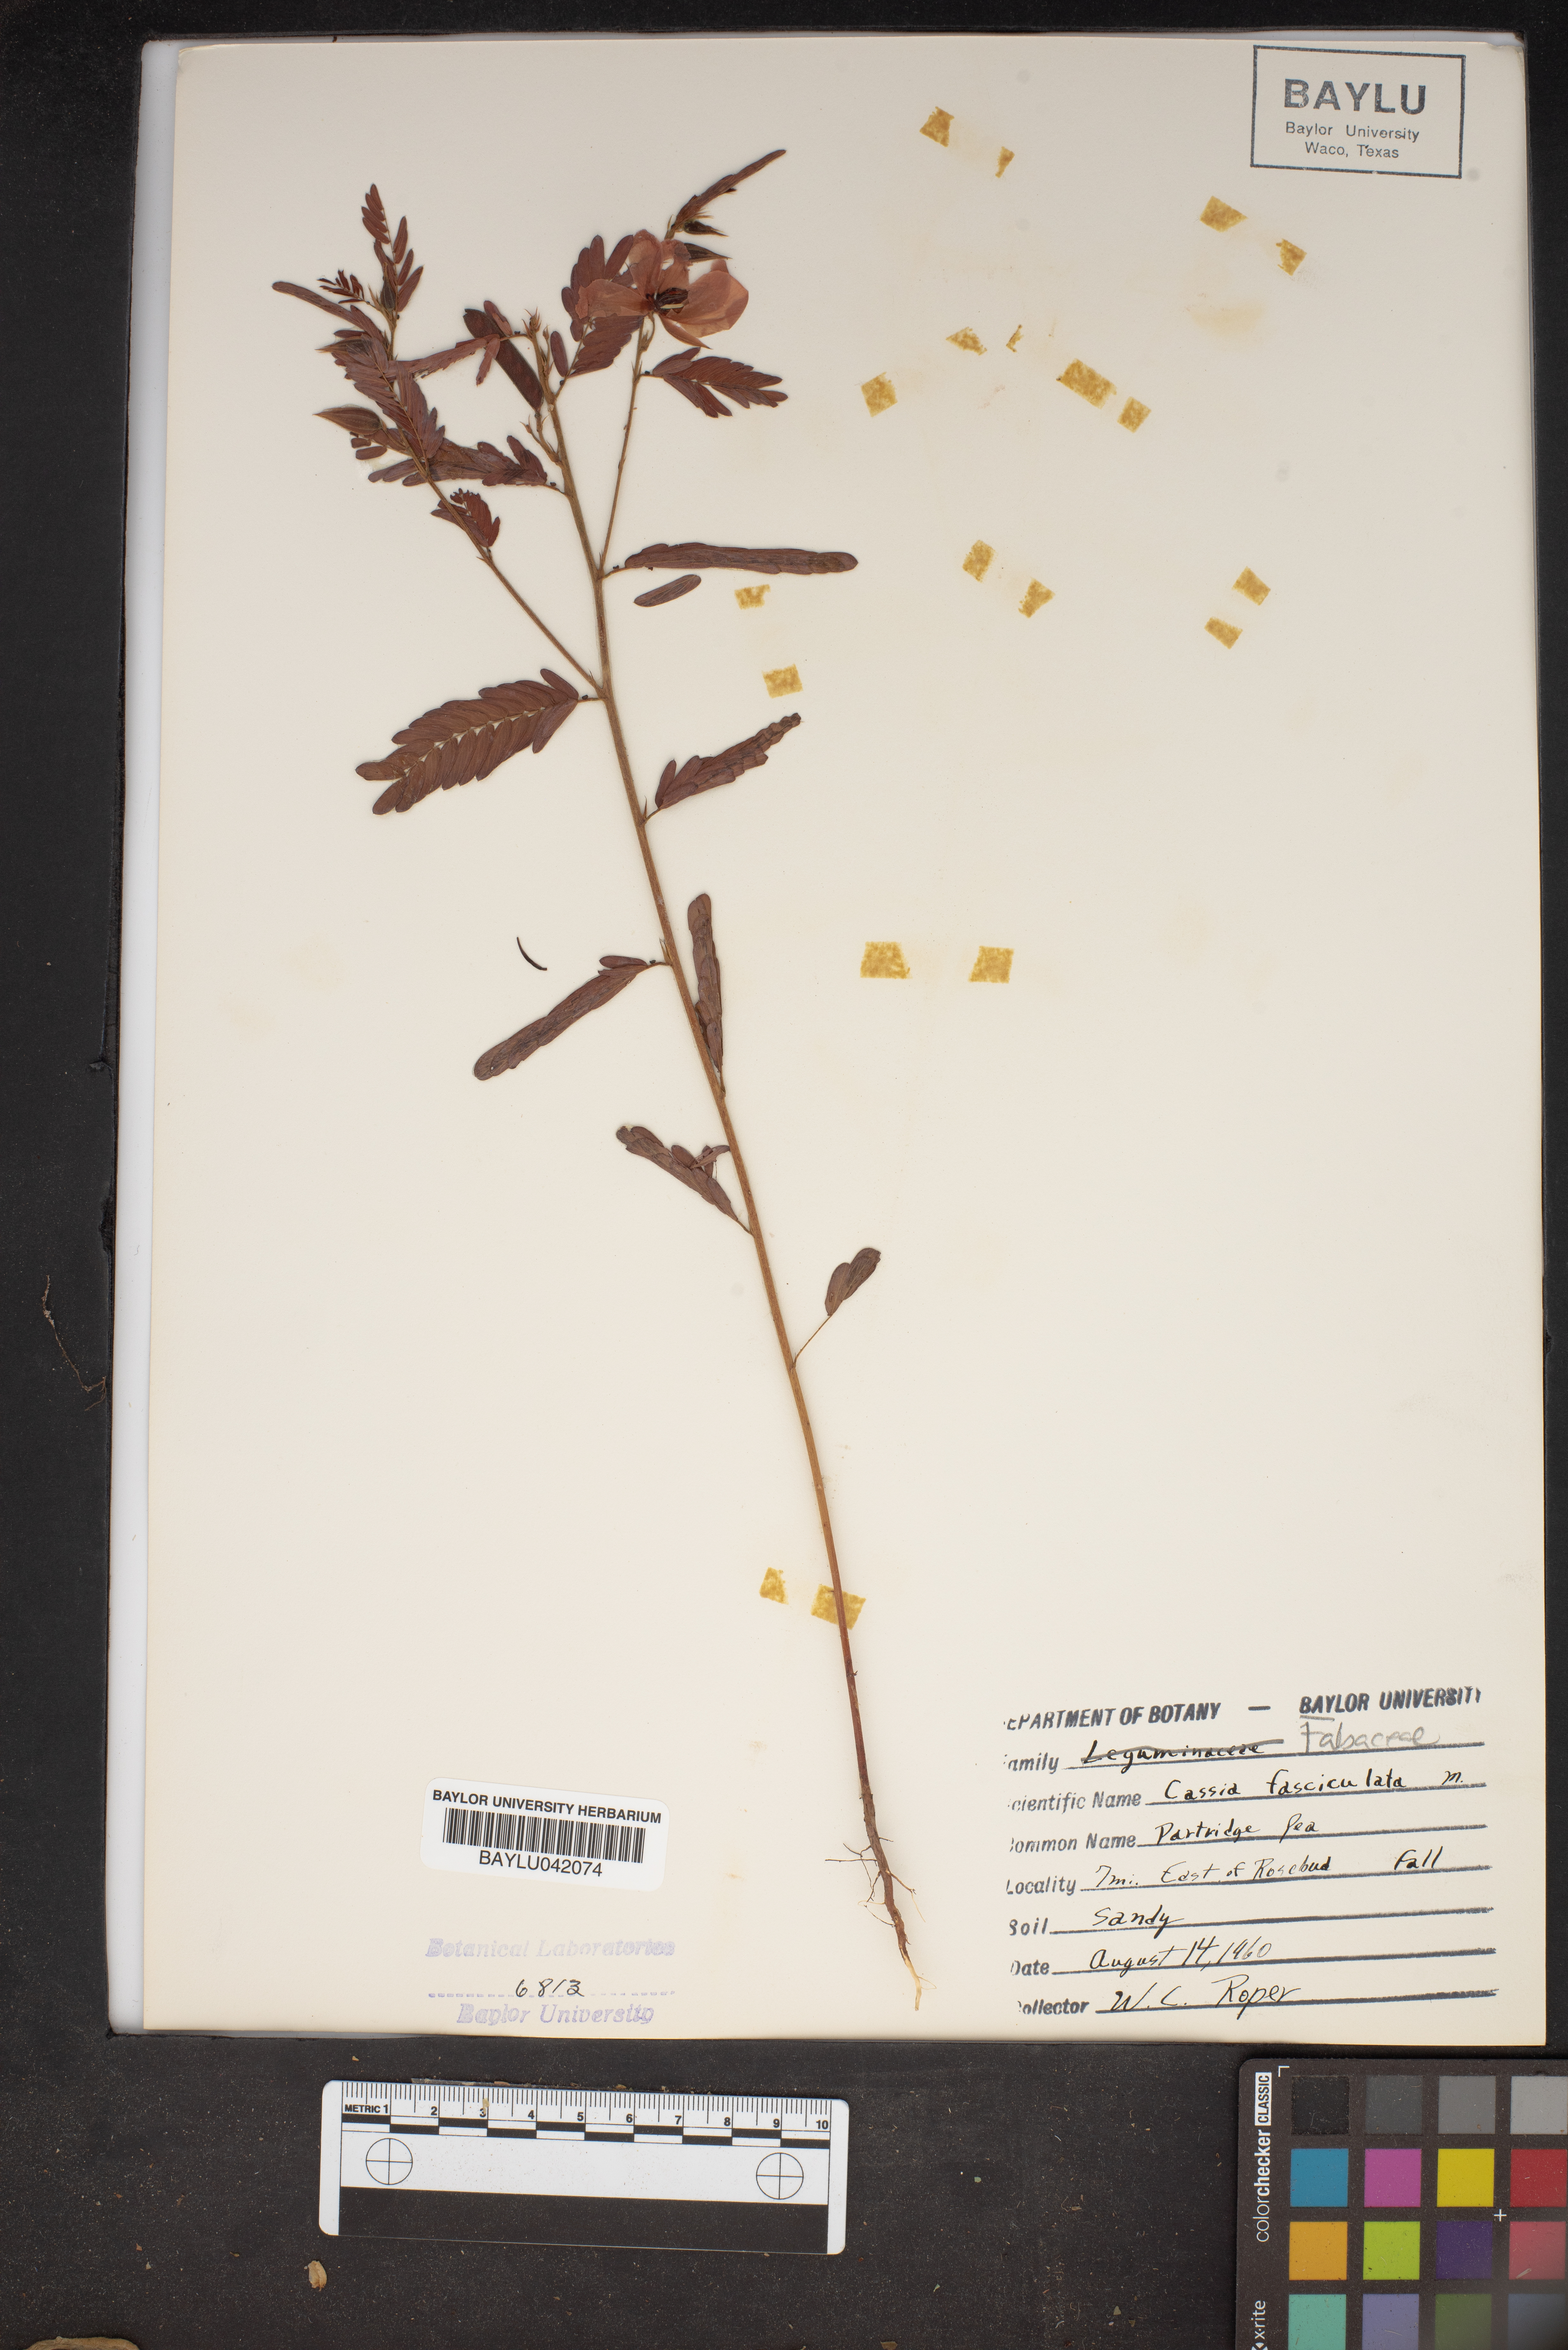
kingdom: Plantae
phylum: Tracheophyta
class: Magnoliopsida
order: Fabales
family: Fabaceae
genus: Chamaecrista
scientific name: Chamaecrista fasciculata
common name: Golden cassia
